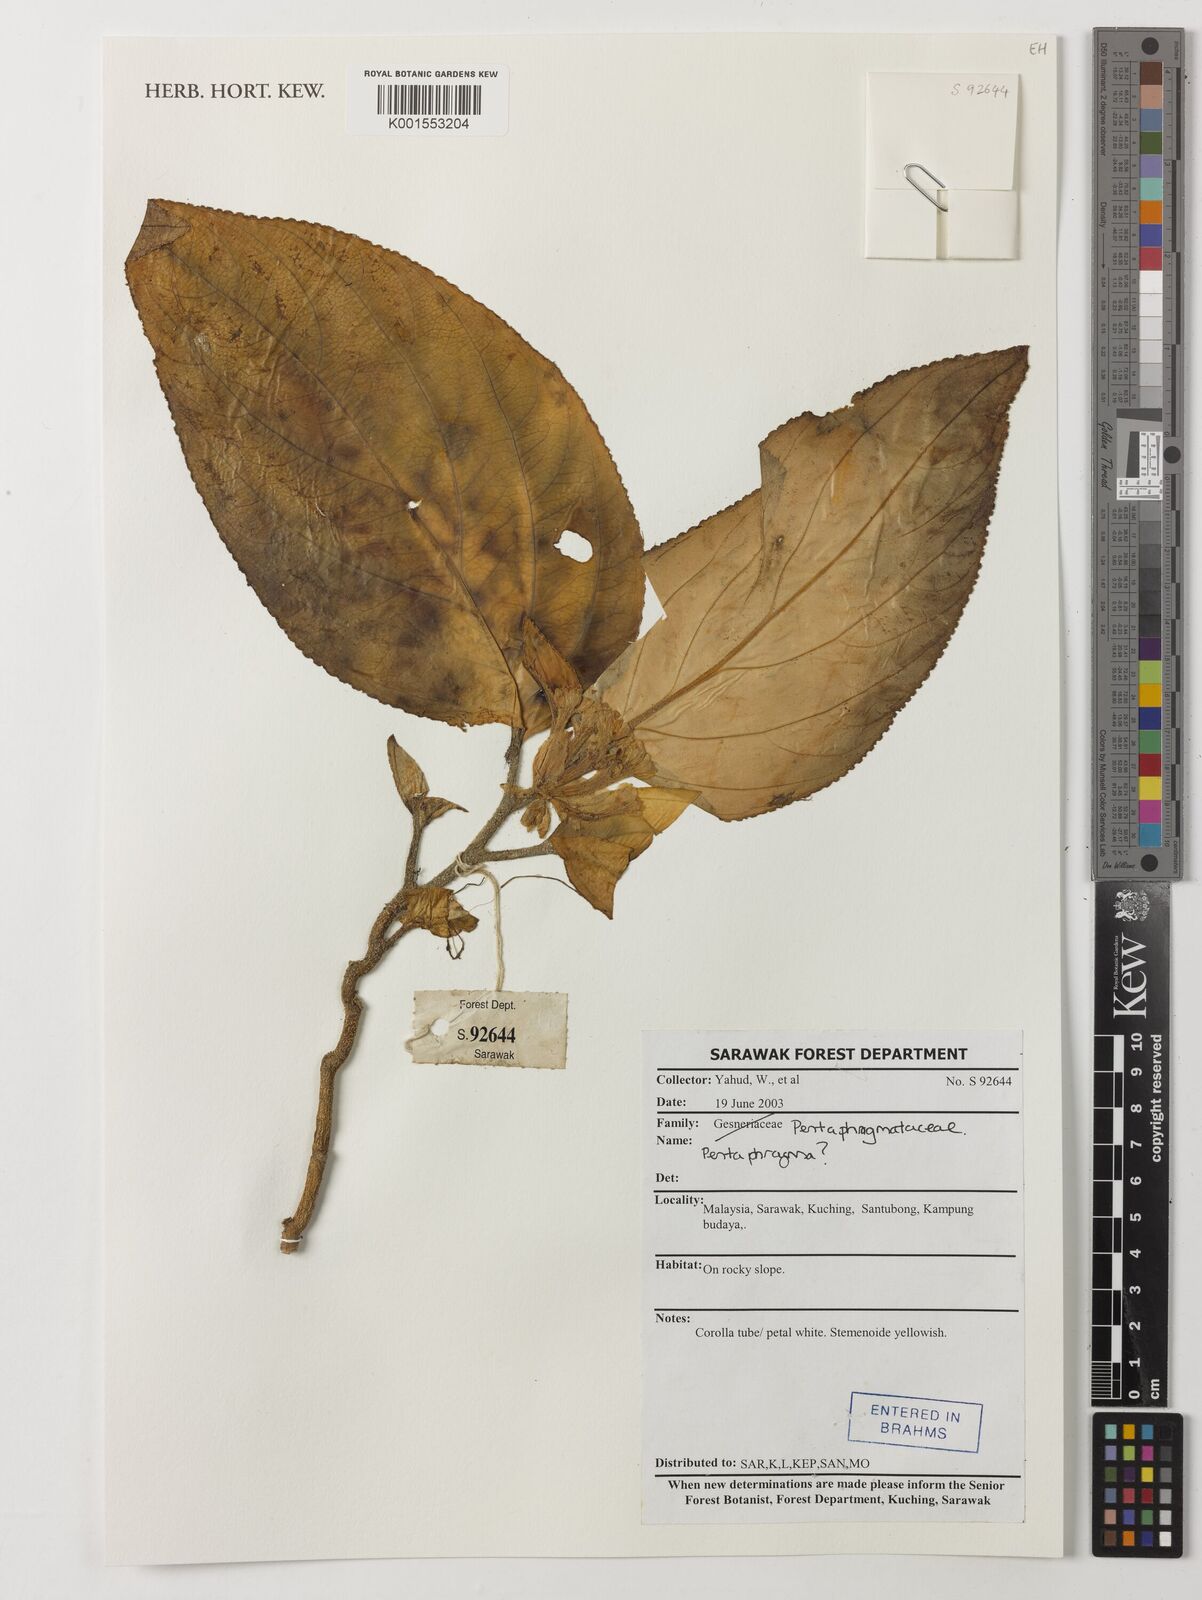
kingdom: Plantae
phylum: Tracheophyta
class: Magnoliopsida
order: Asterales
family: Pentaphragmataceae
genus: Pentaphragma
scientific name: Pentaphragma
